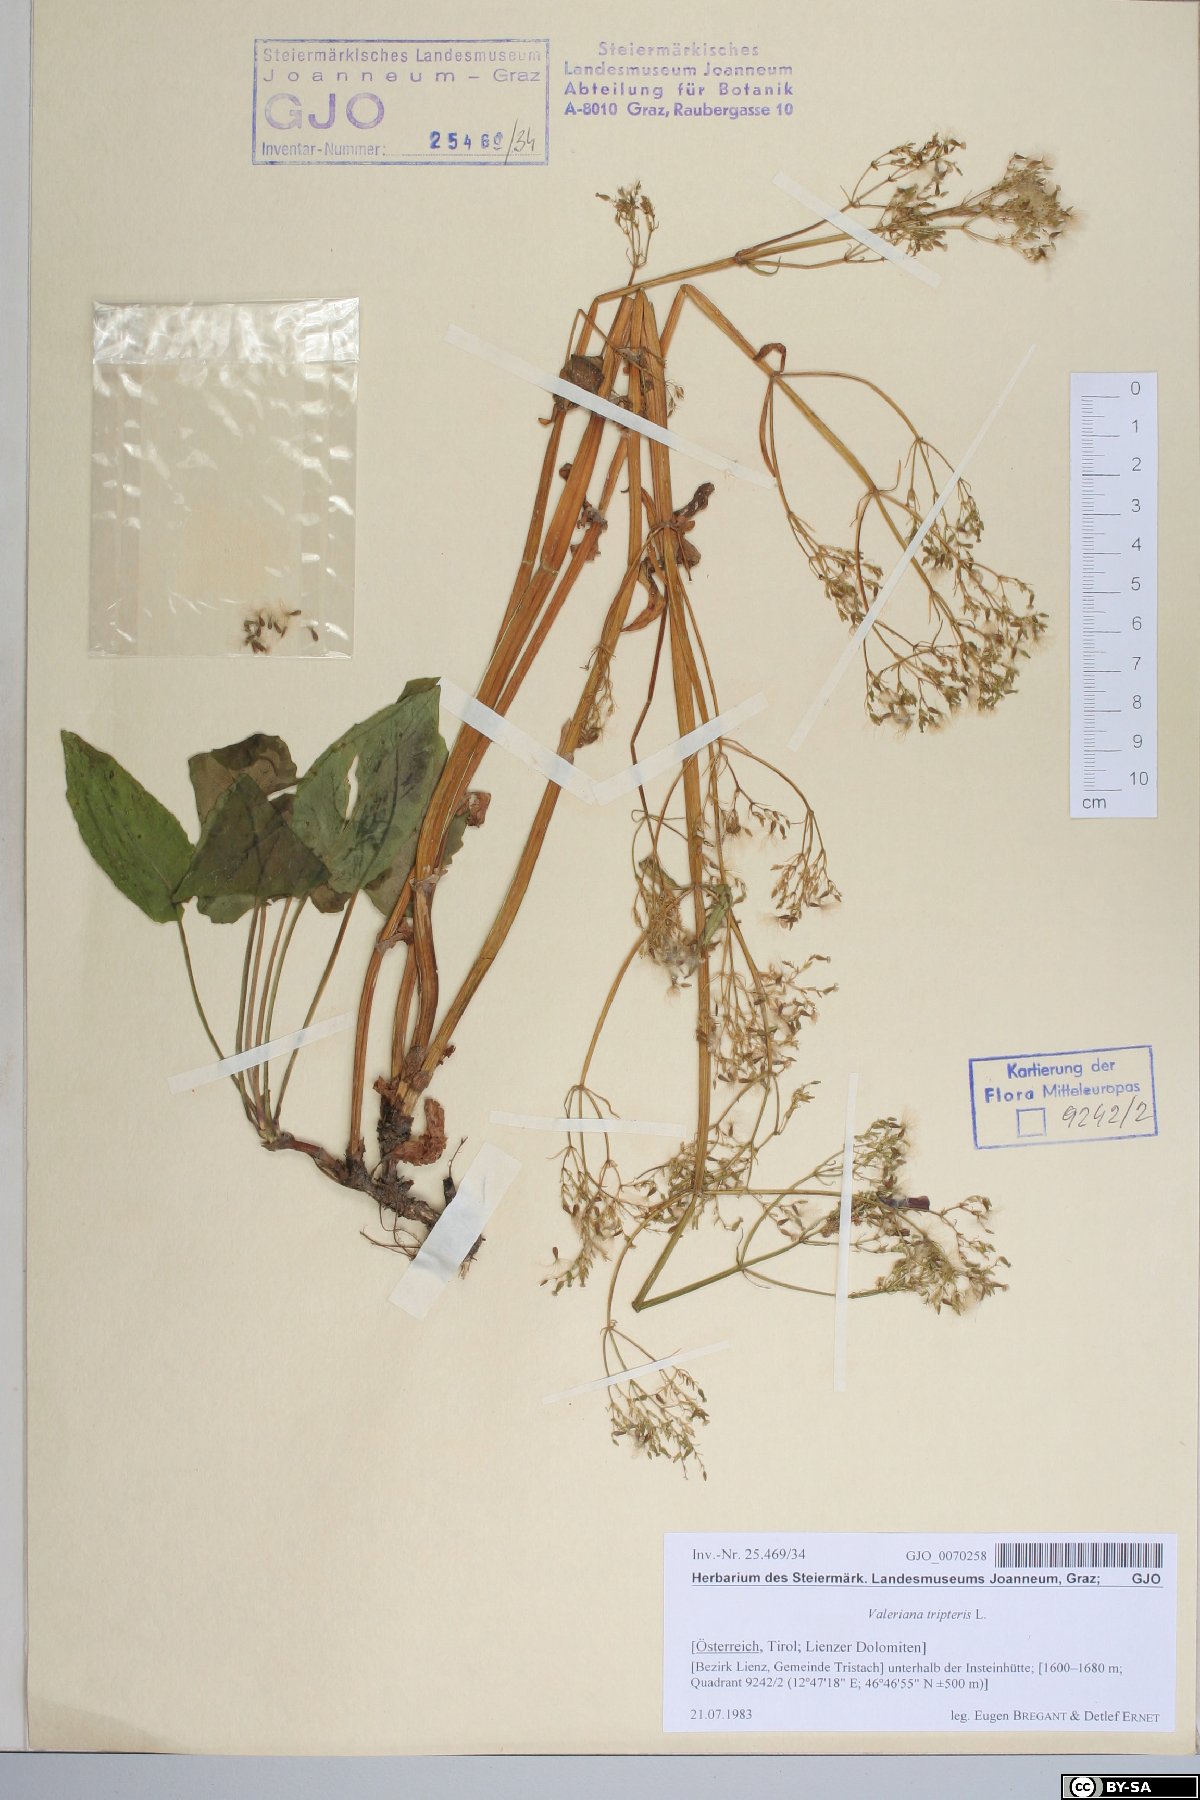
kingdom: Plantae
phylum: Tracheophyta
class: Magnoliopsida
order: Dipsacales
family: Caprifoliaceae
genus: Valeriana
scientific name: Valeriana tripteris
